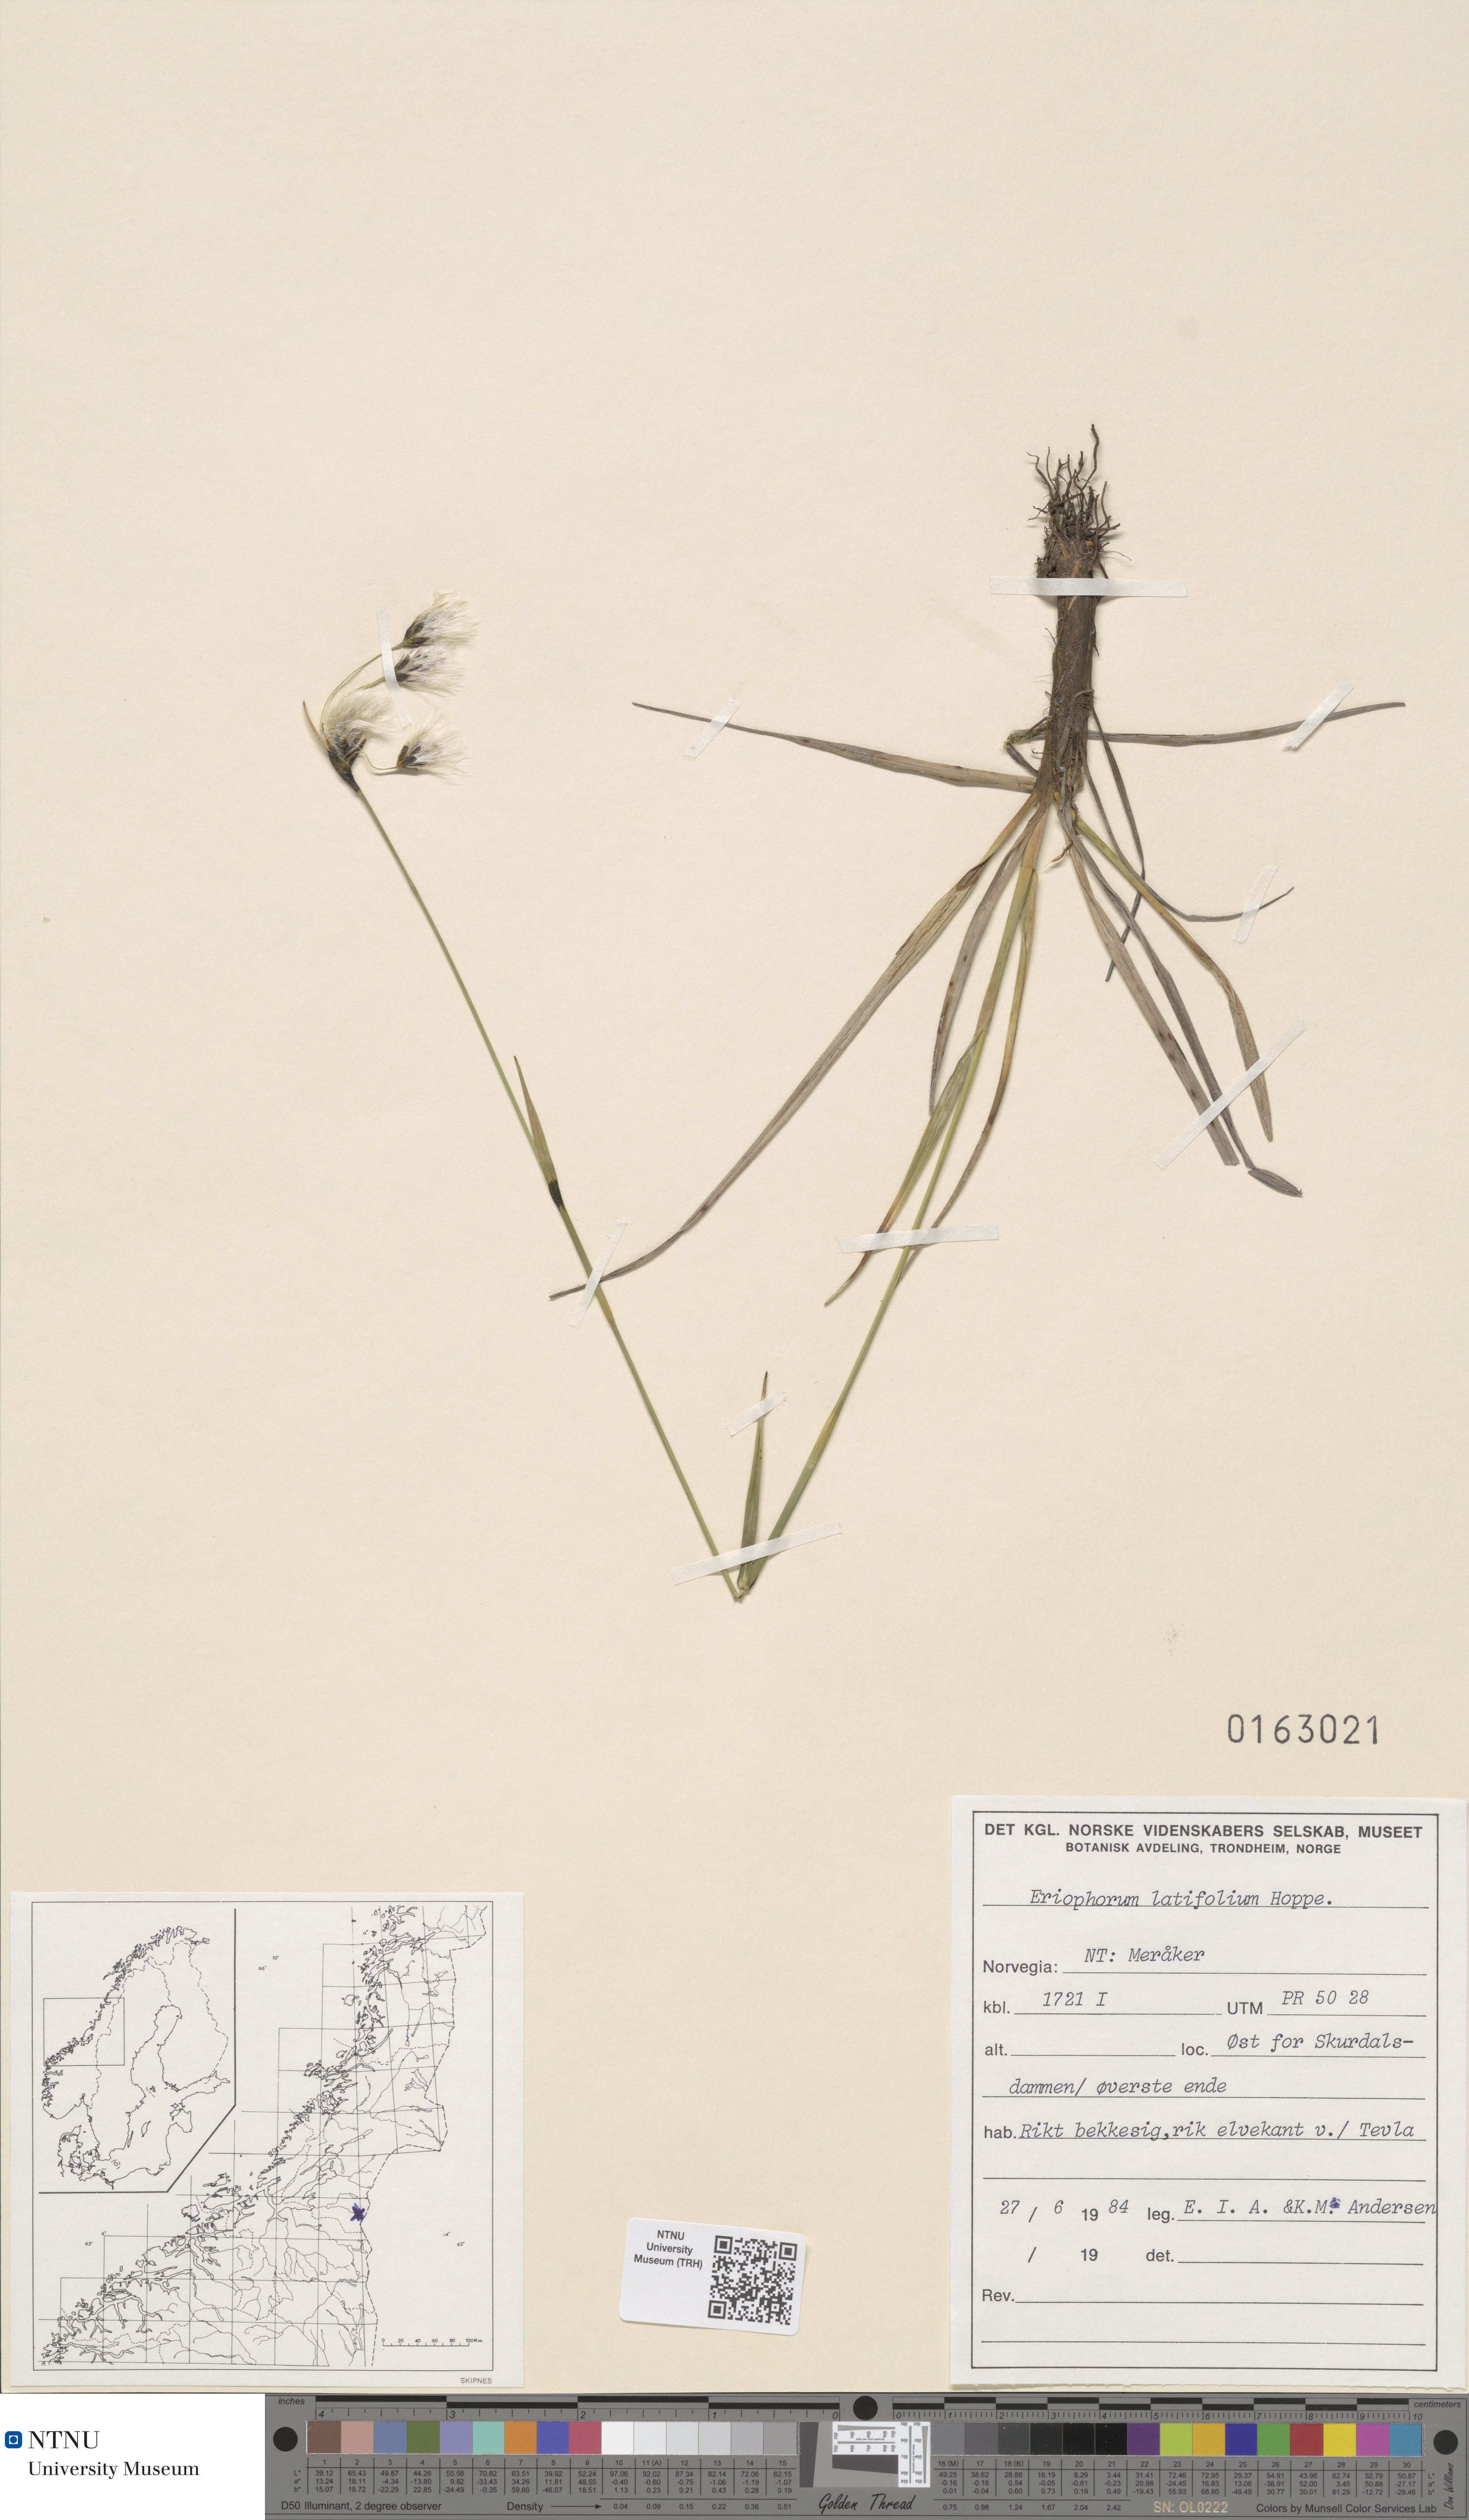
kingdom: Plantae
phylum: Tracheophyta
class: Liliopsida
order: Poales
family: Cyperaceae
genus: Eriophorum
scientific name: Eriophorum latifolium
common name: Broad-leaved cottongrass
